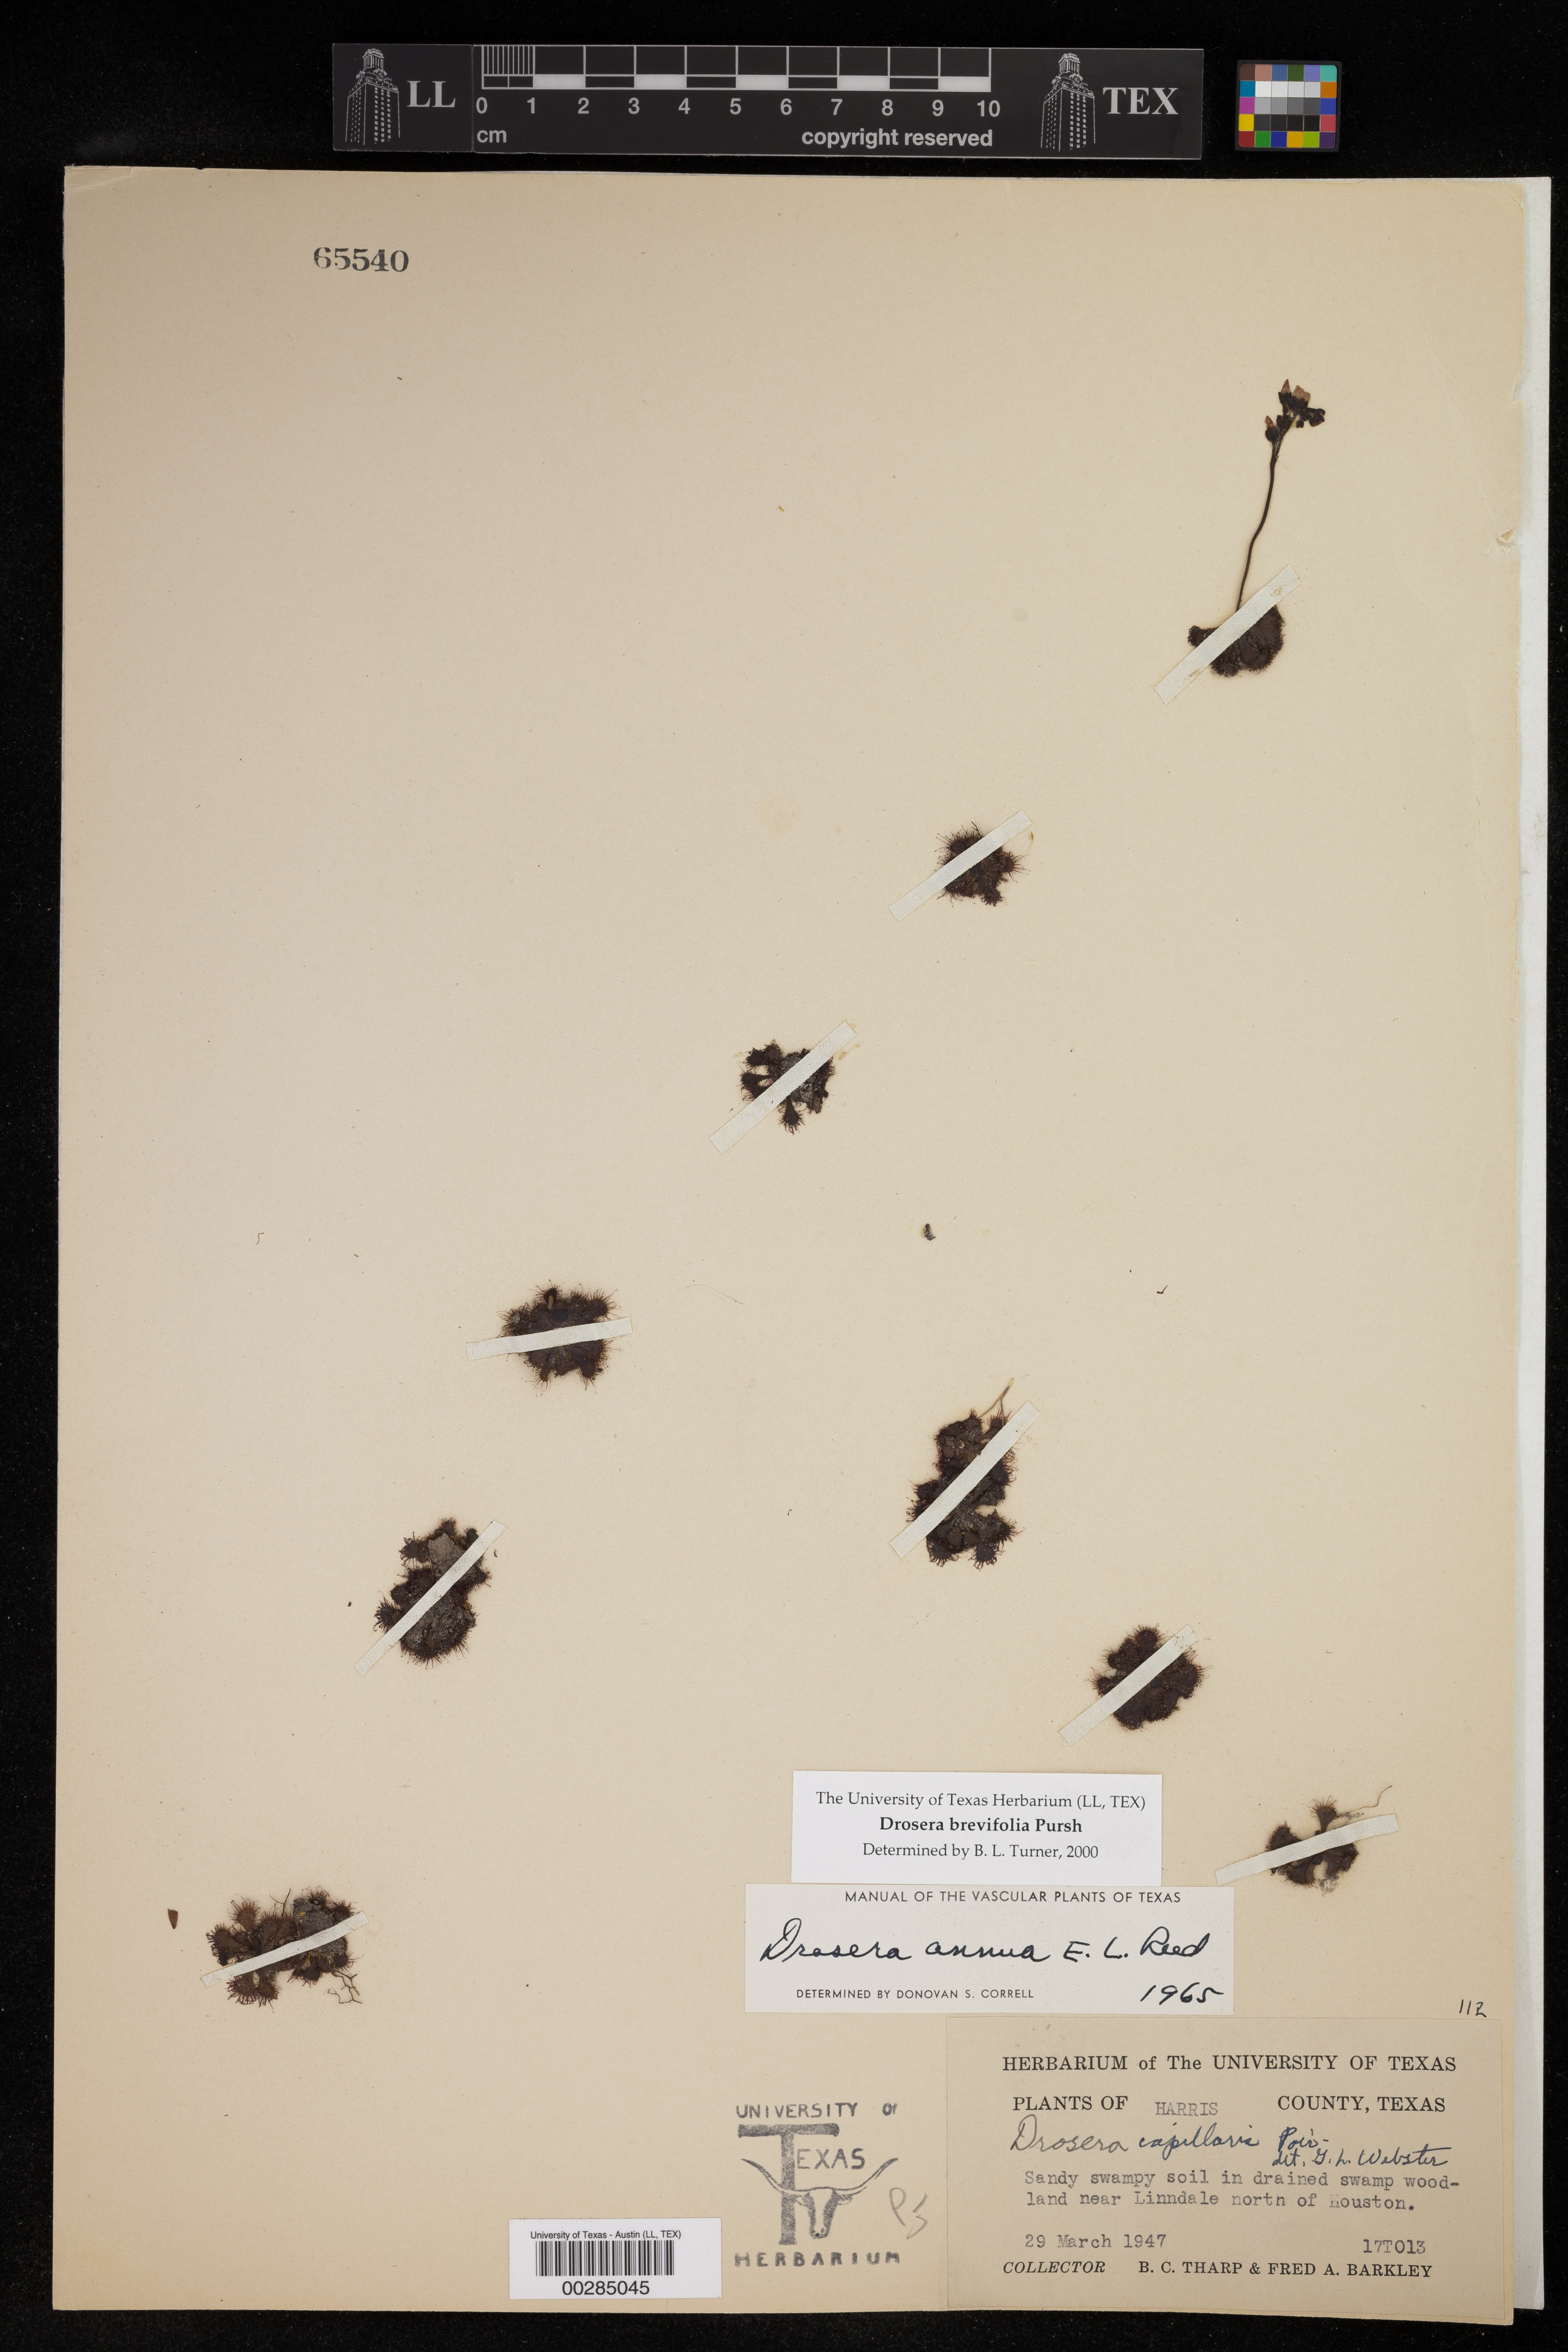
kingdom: Plantae
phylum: Tracheophyta
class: Magnoliopsida
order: Caryophyllales
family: Droseraceae
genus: Drosera
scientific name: Drosera brevifolia
